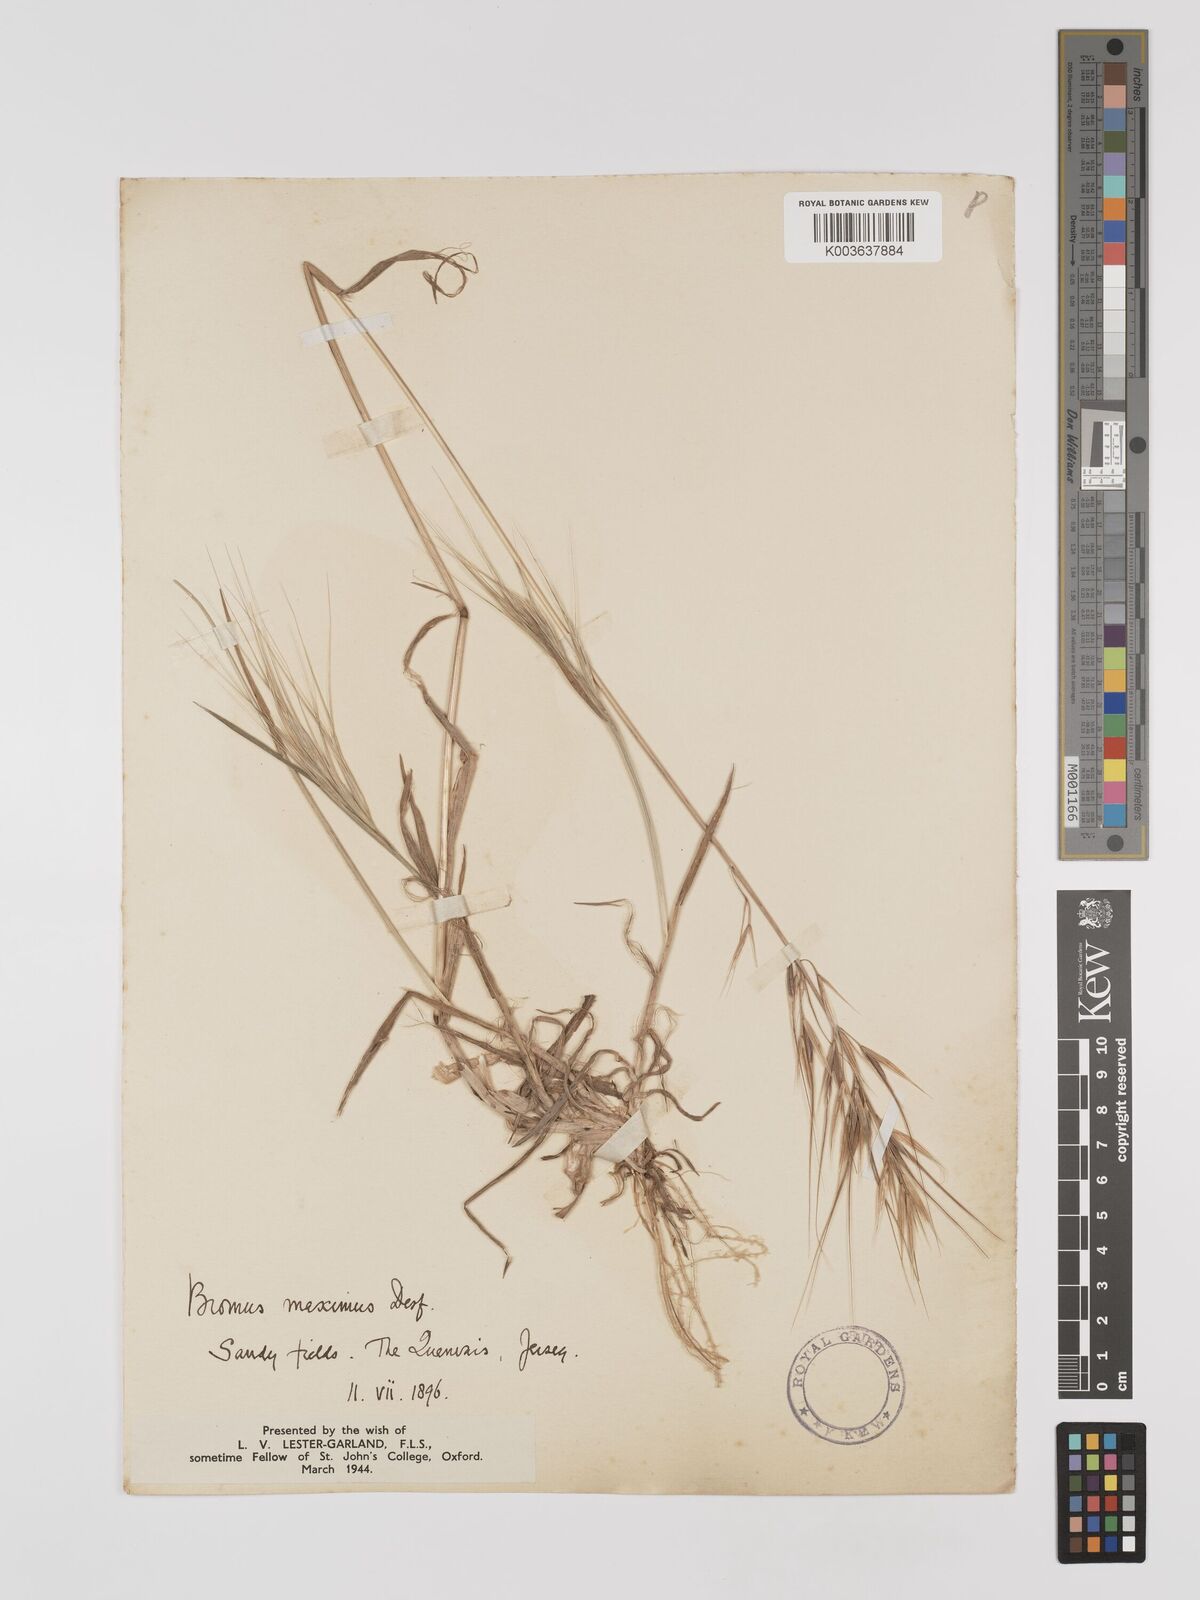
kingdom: Plantae
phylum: Tracheophyta
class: Liliopsida
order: Poales
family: Poaceae
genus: Bromus
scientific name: Bromus
